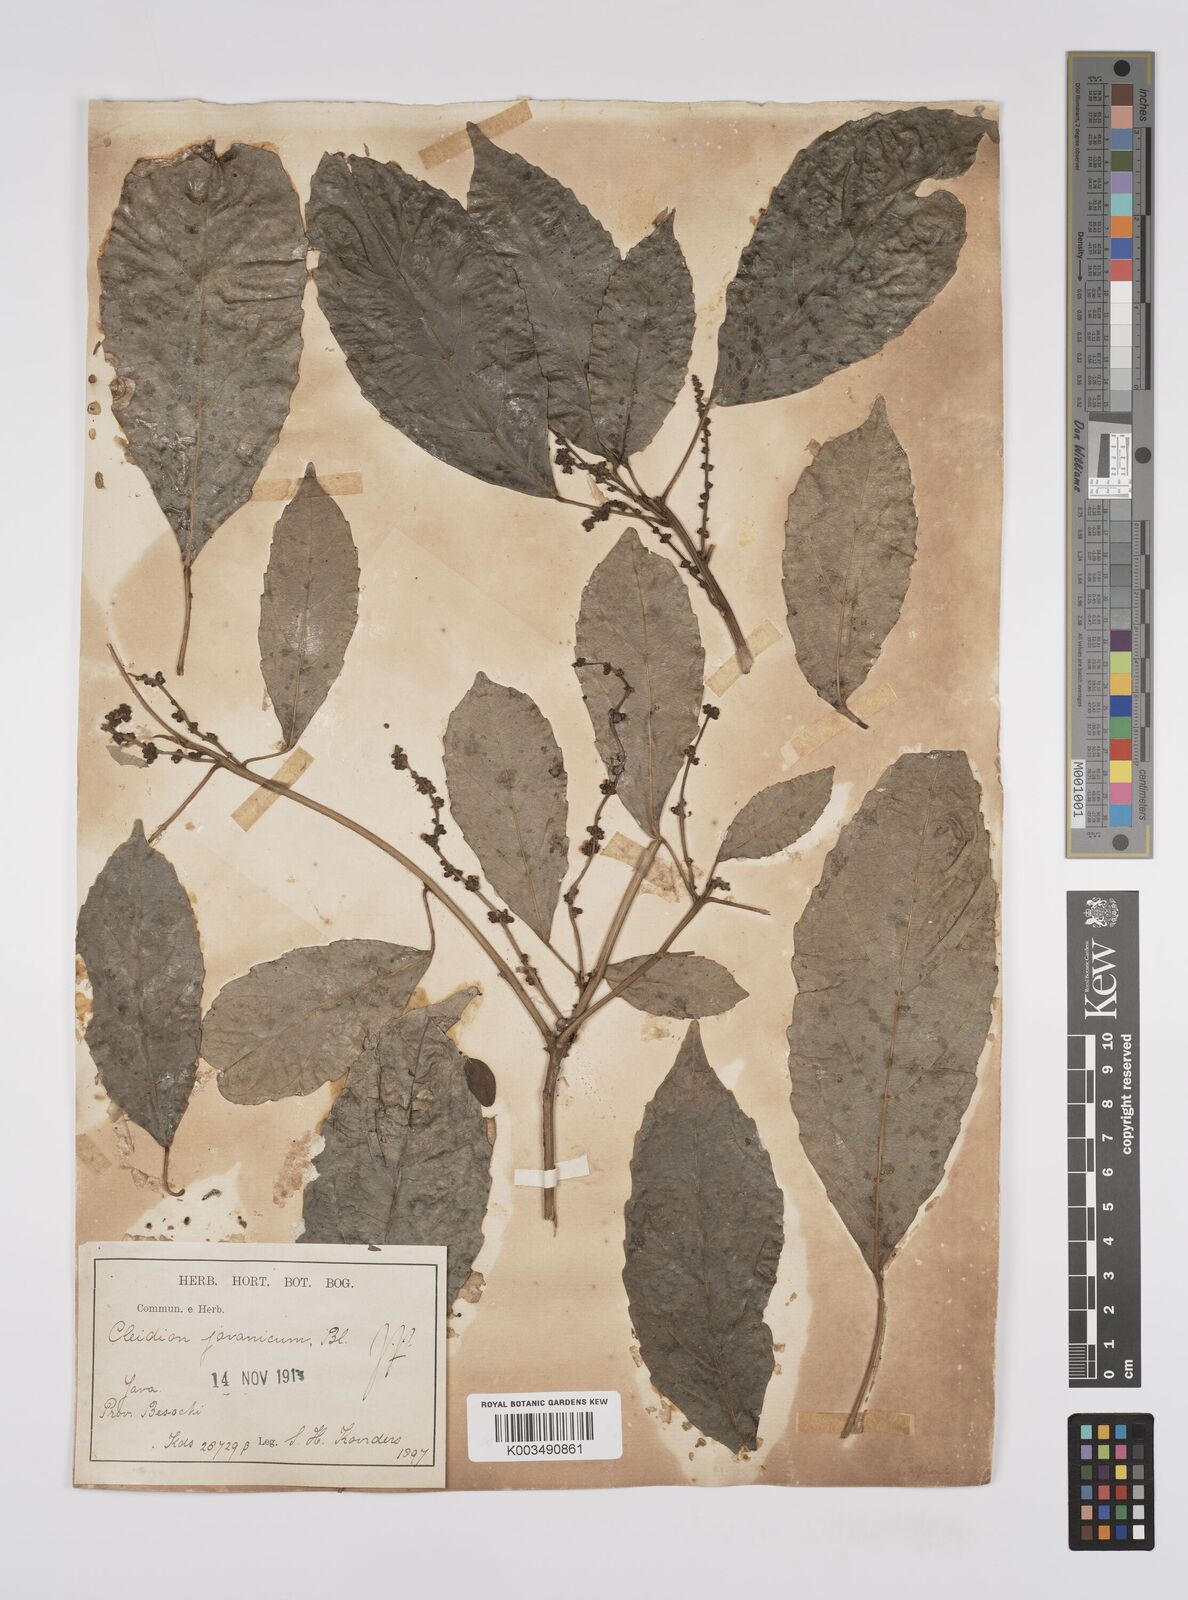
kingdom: Plantae
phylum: Tracheophyta
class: Magnoliopsida
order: Malpighiales
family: Euphorbiaceae
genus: Acalypha
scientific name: Acalypha spiciflora
